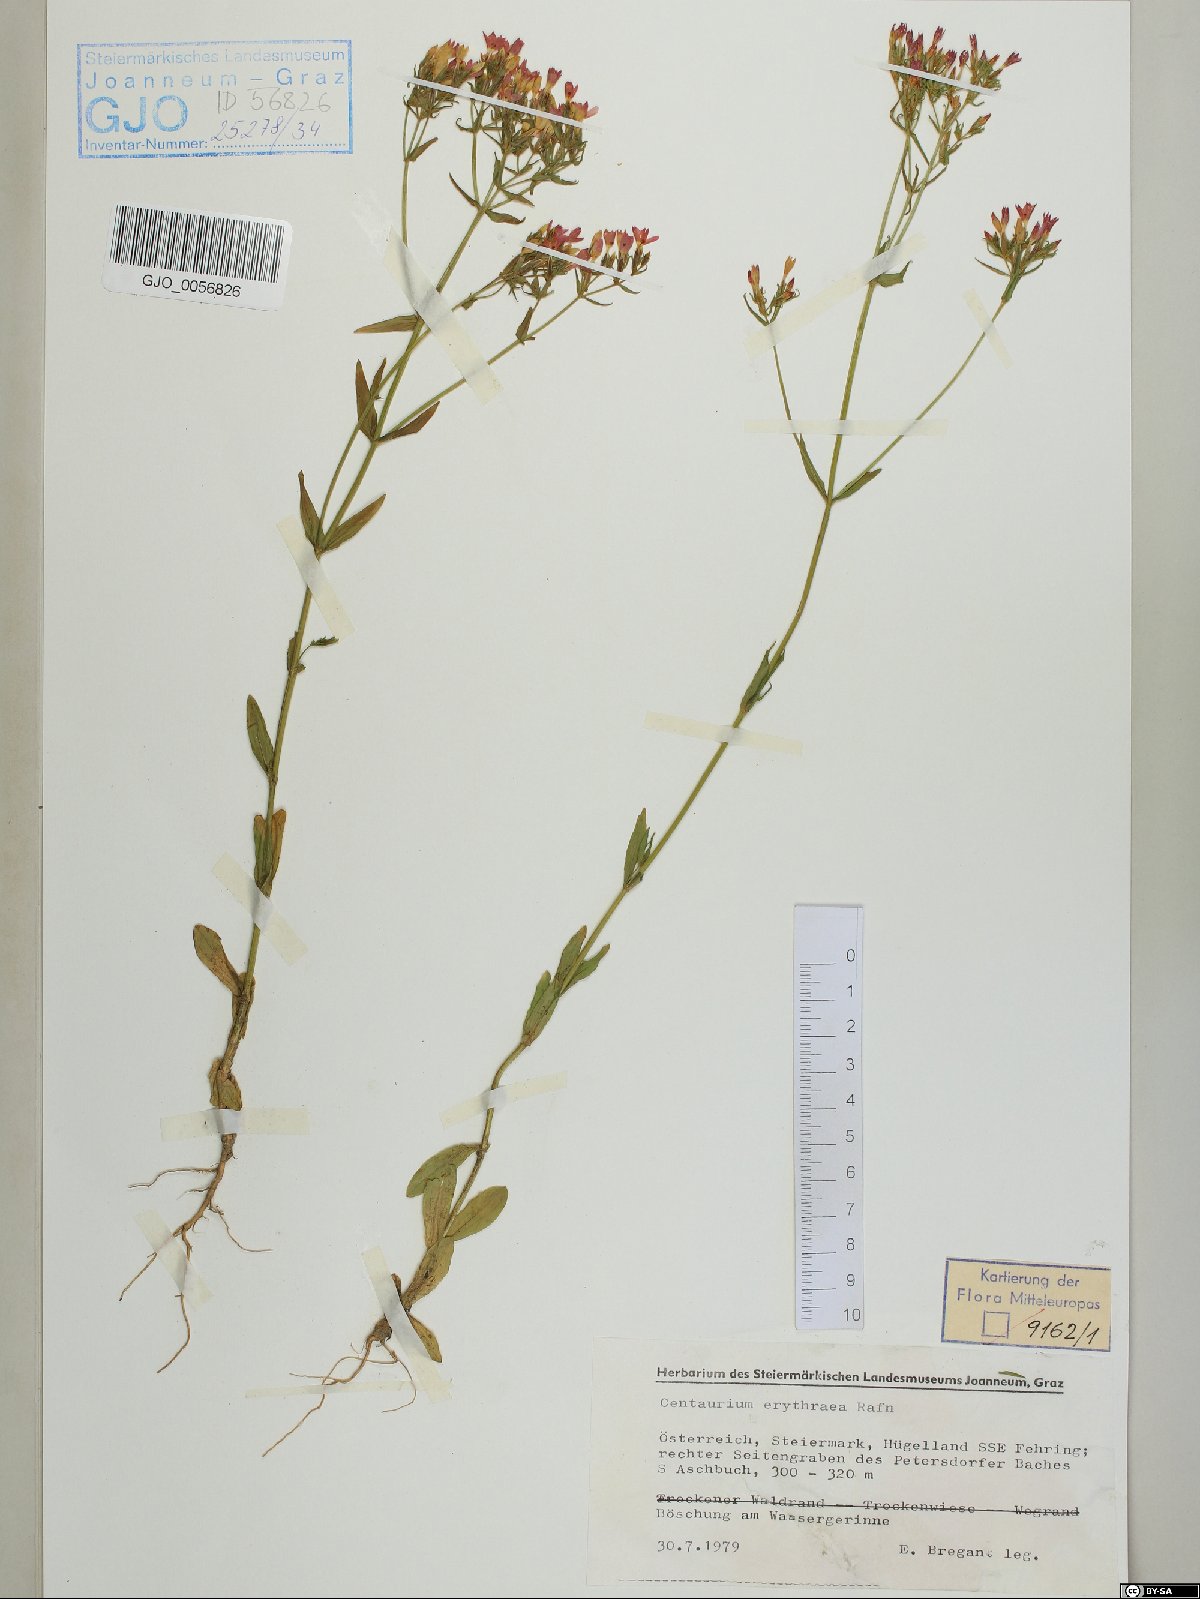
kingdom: Plantae
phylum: Tracheophyta
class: Magnoliopsida
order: Gentianales
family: Gentianaceae
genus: Centaurium
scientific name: Centaurium erythraea
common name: Common centaury
